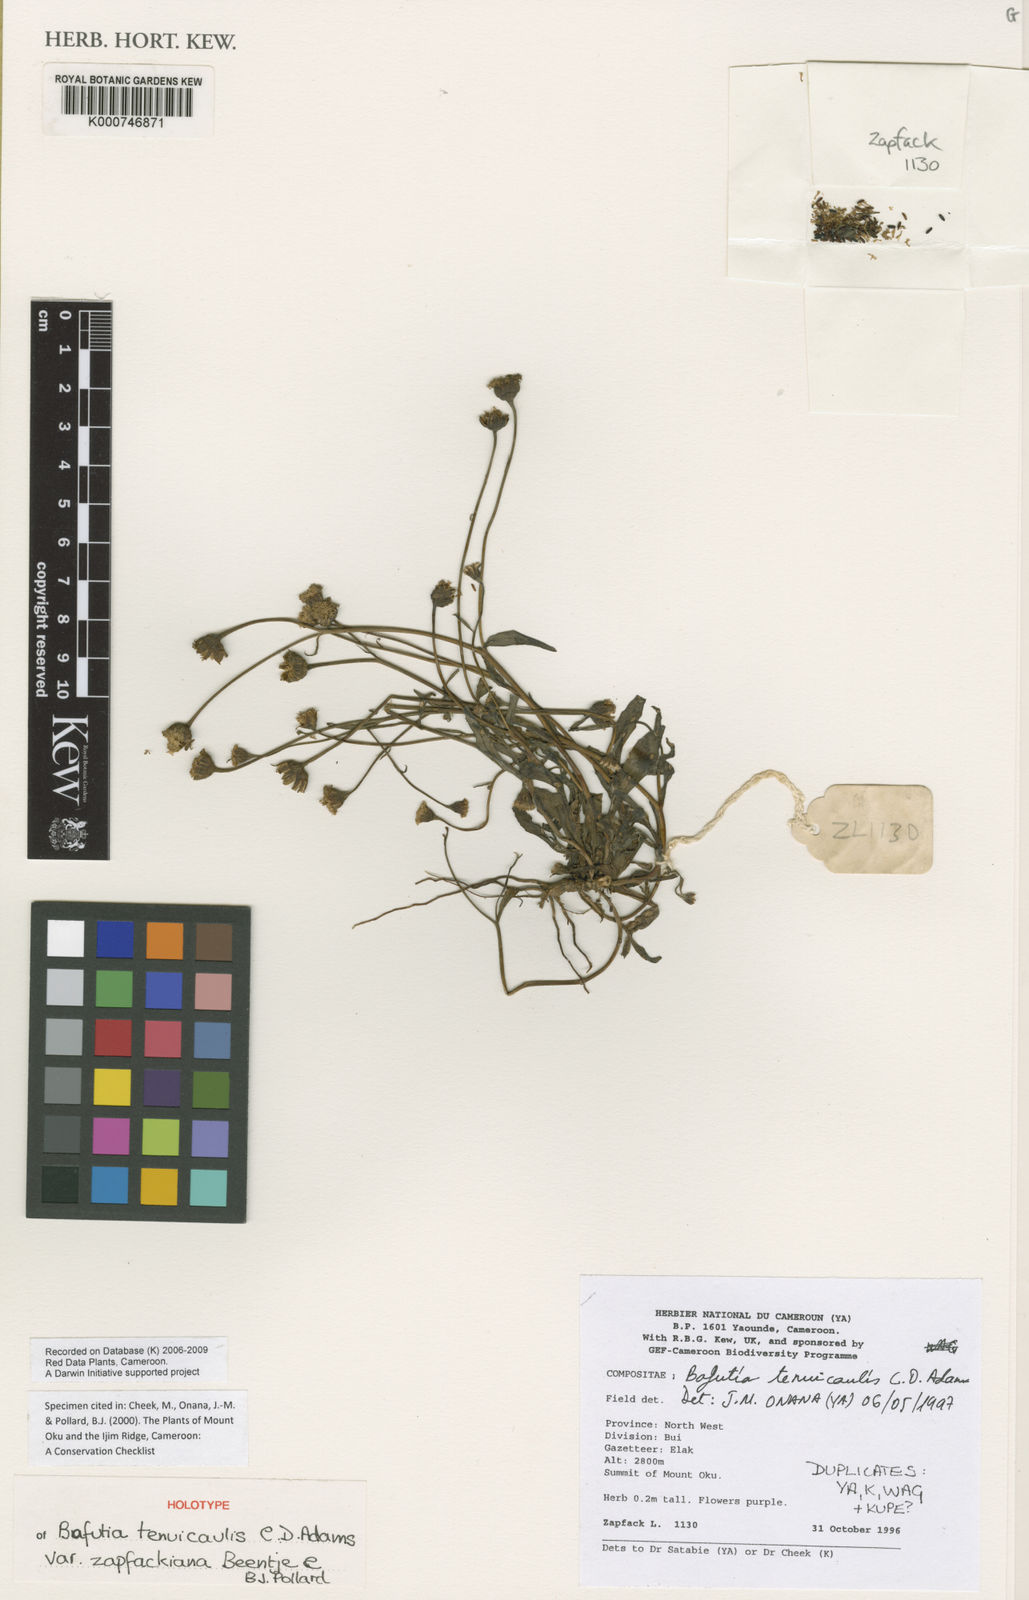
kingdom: Plantae
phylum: Tracheophyta
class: Magnoliopsida
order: Asterales
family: Asteraceae
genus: Emilia
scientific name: Emilia tenuicaulis
